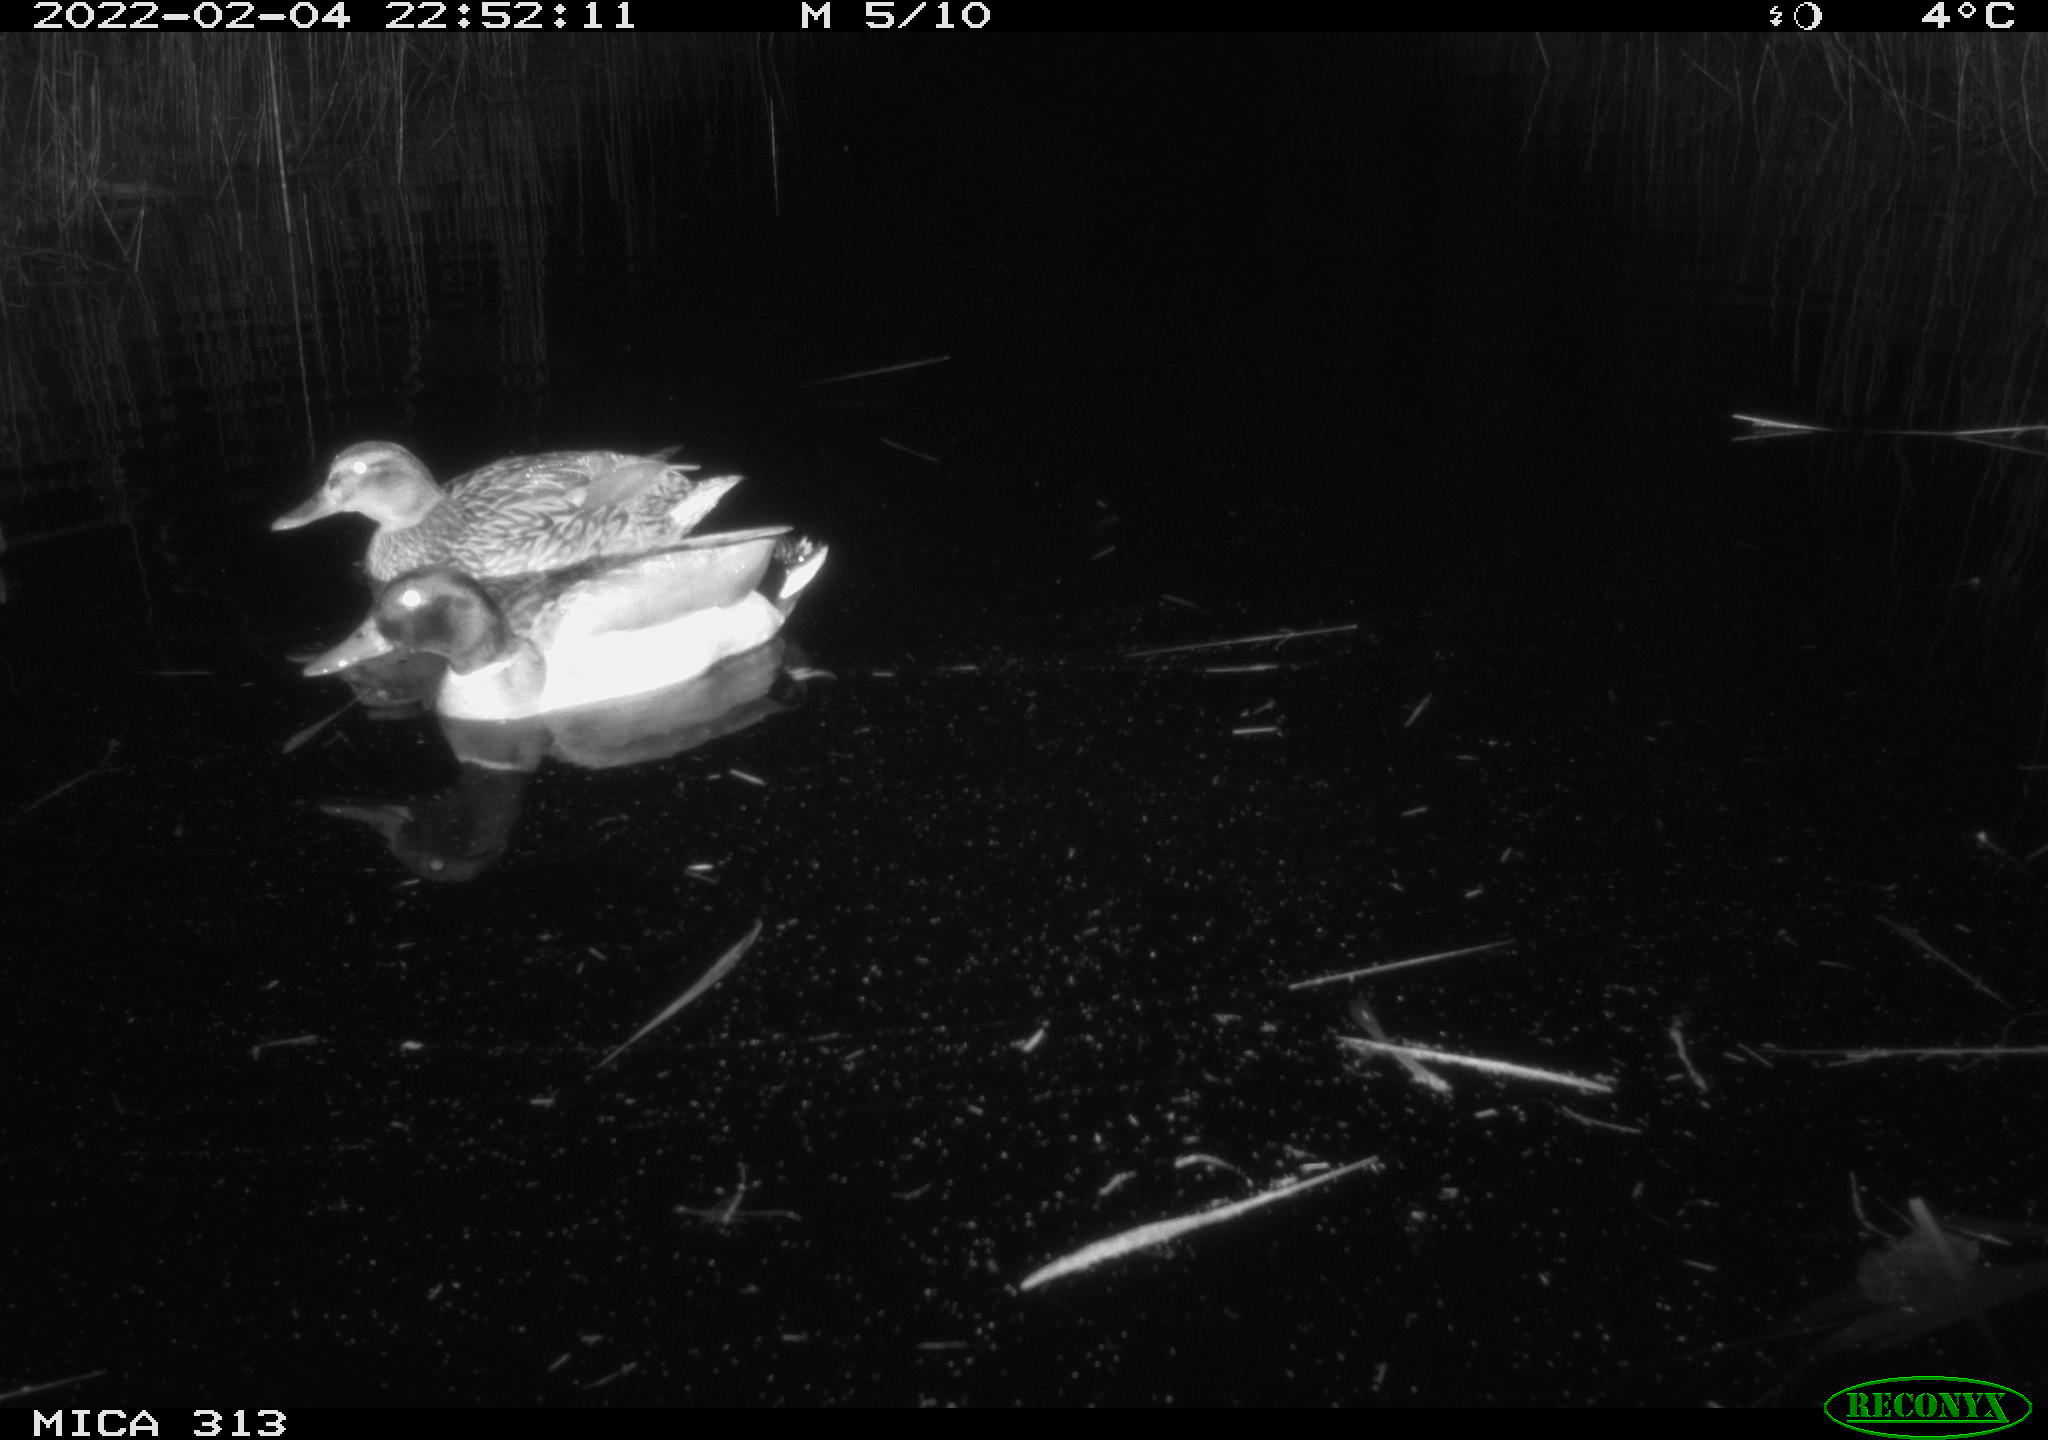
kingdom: Animalia
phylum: Chordata
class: Aves
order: Anseriformes
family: Anatidae
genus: Anas
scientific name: Anas platyrhynchos
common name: Mallard
